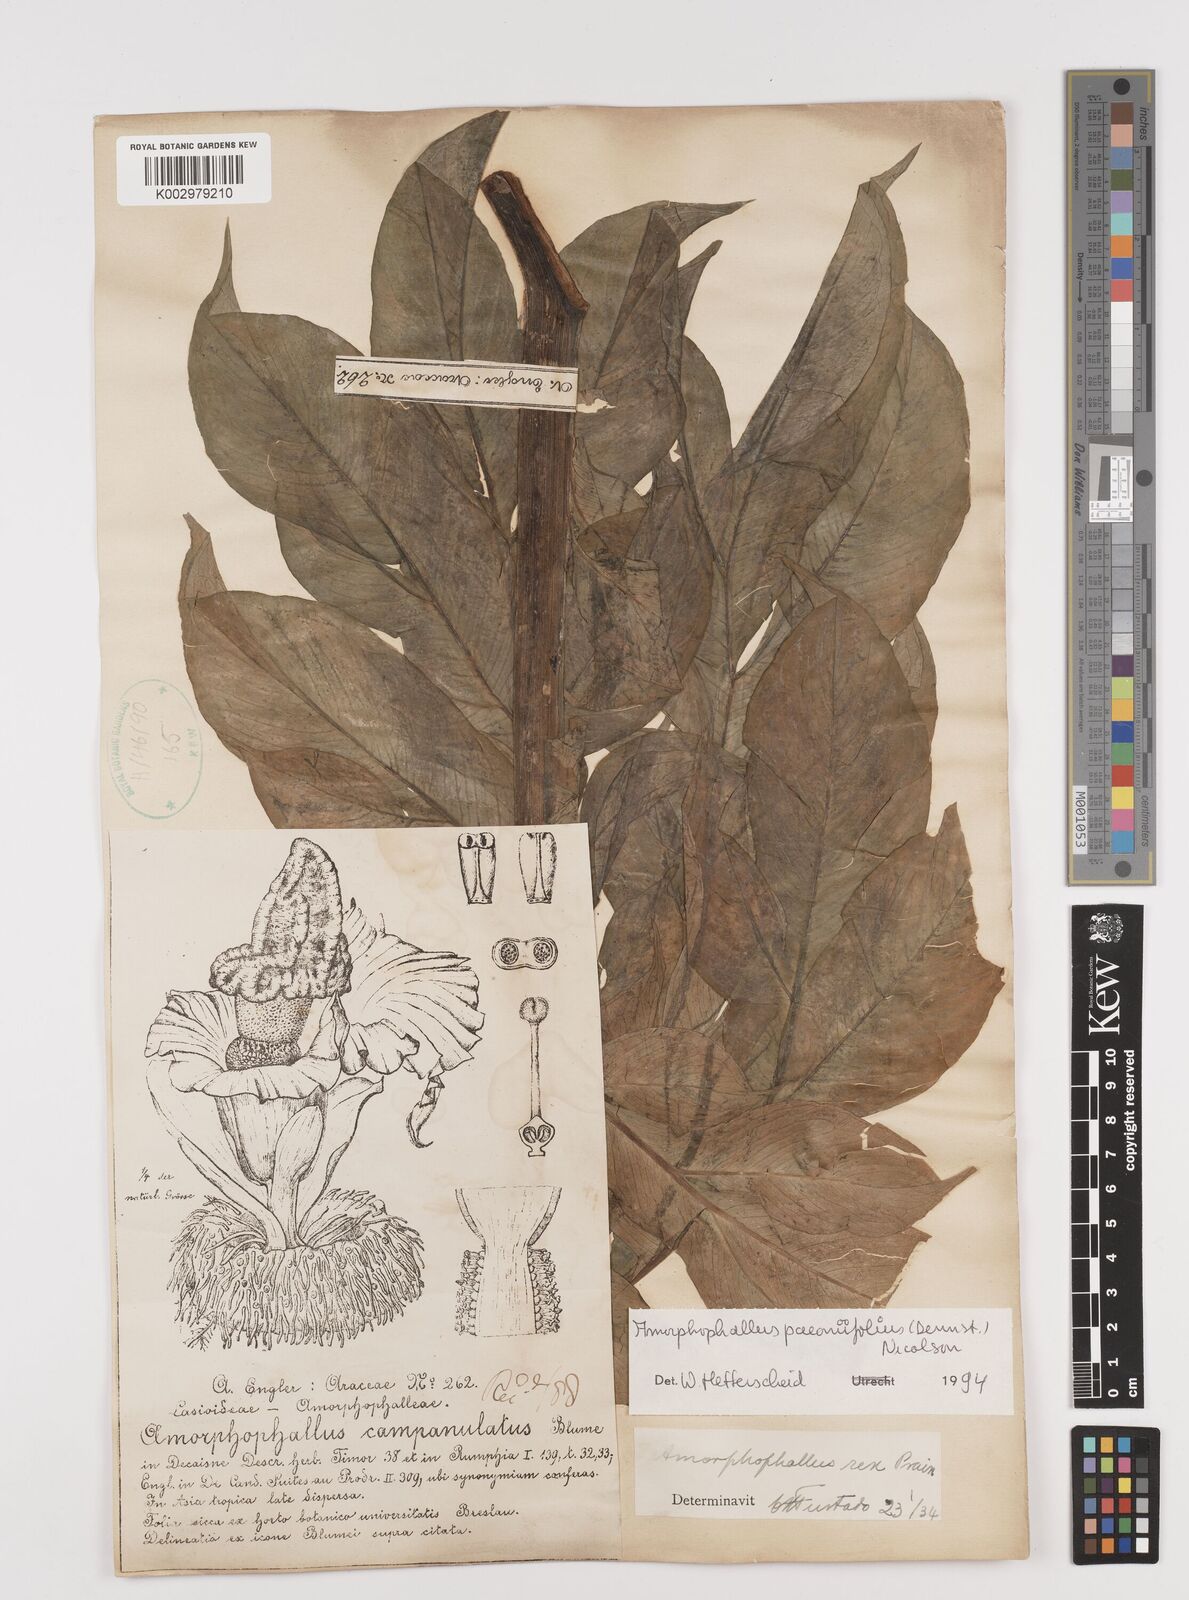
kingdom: Plantae
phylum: Tracheophyta
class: Liliopsida
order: Alismatales
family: Araceae
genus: Amorphophallus
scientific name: Amorphophallus paeoniifolius
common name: Telinga-potato
